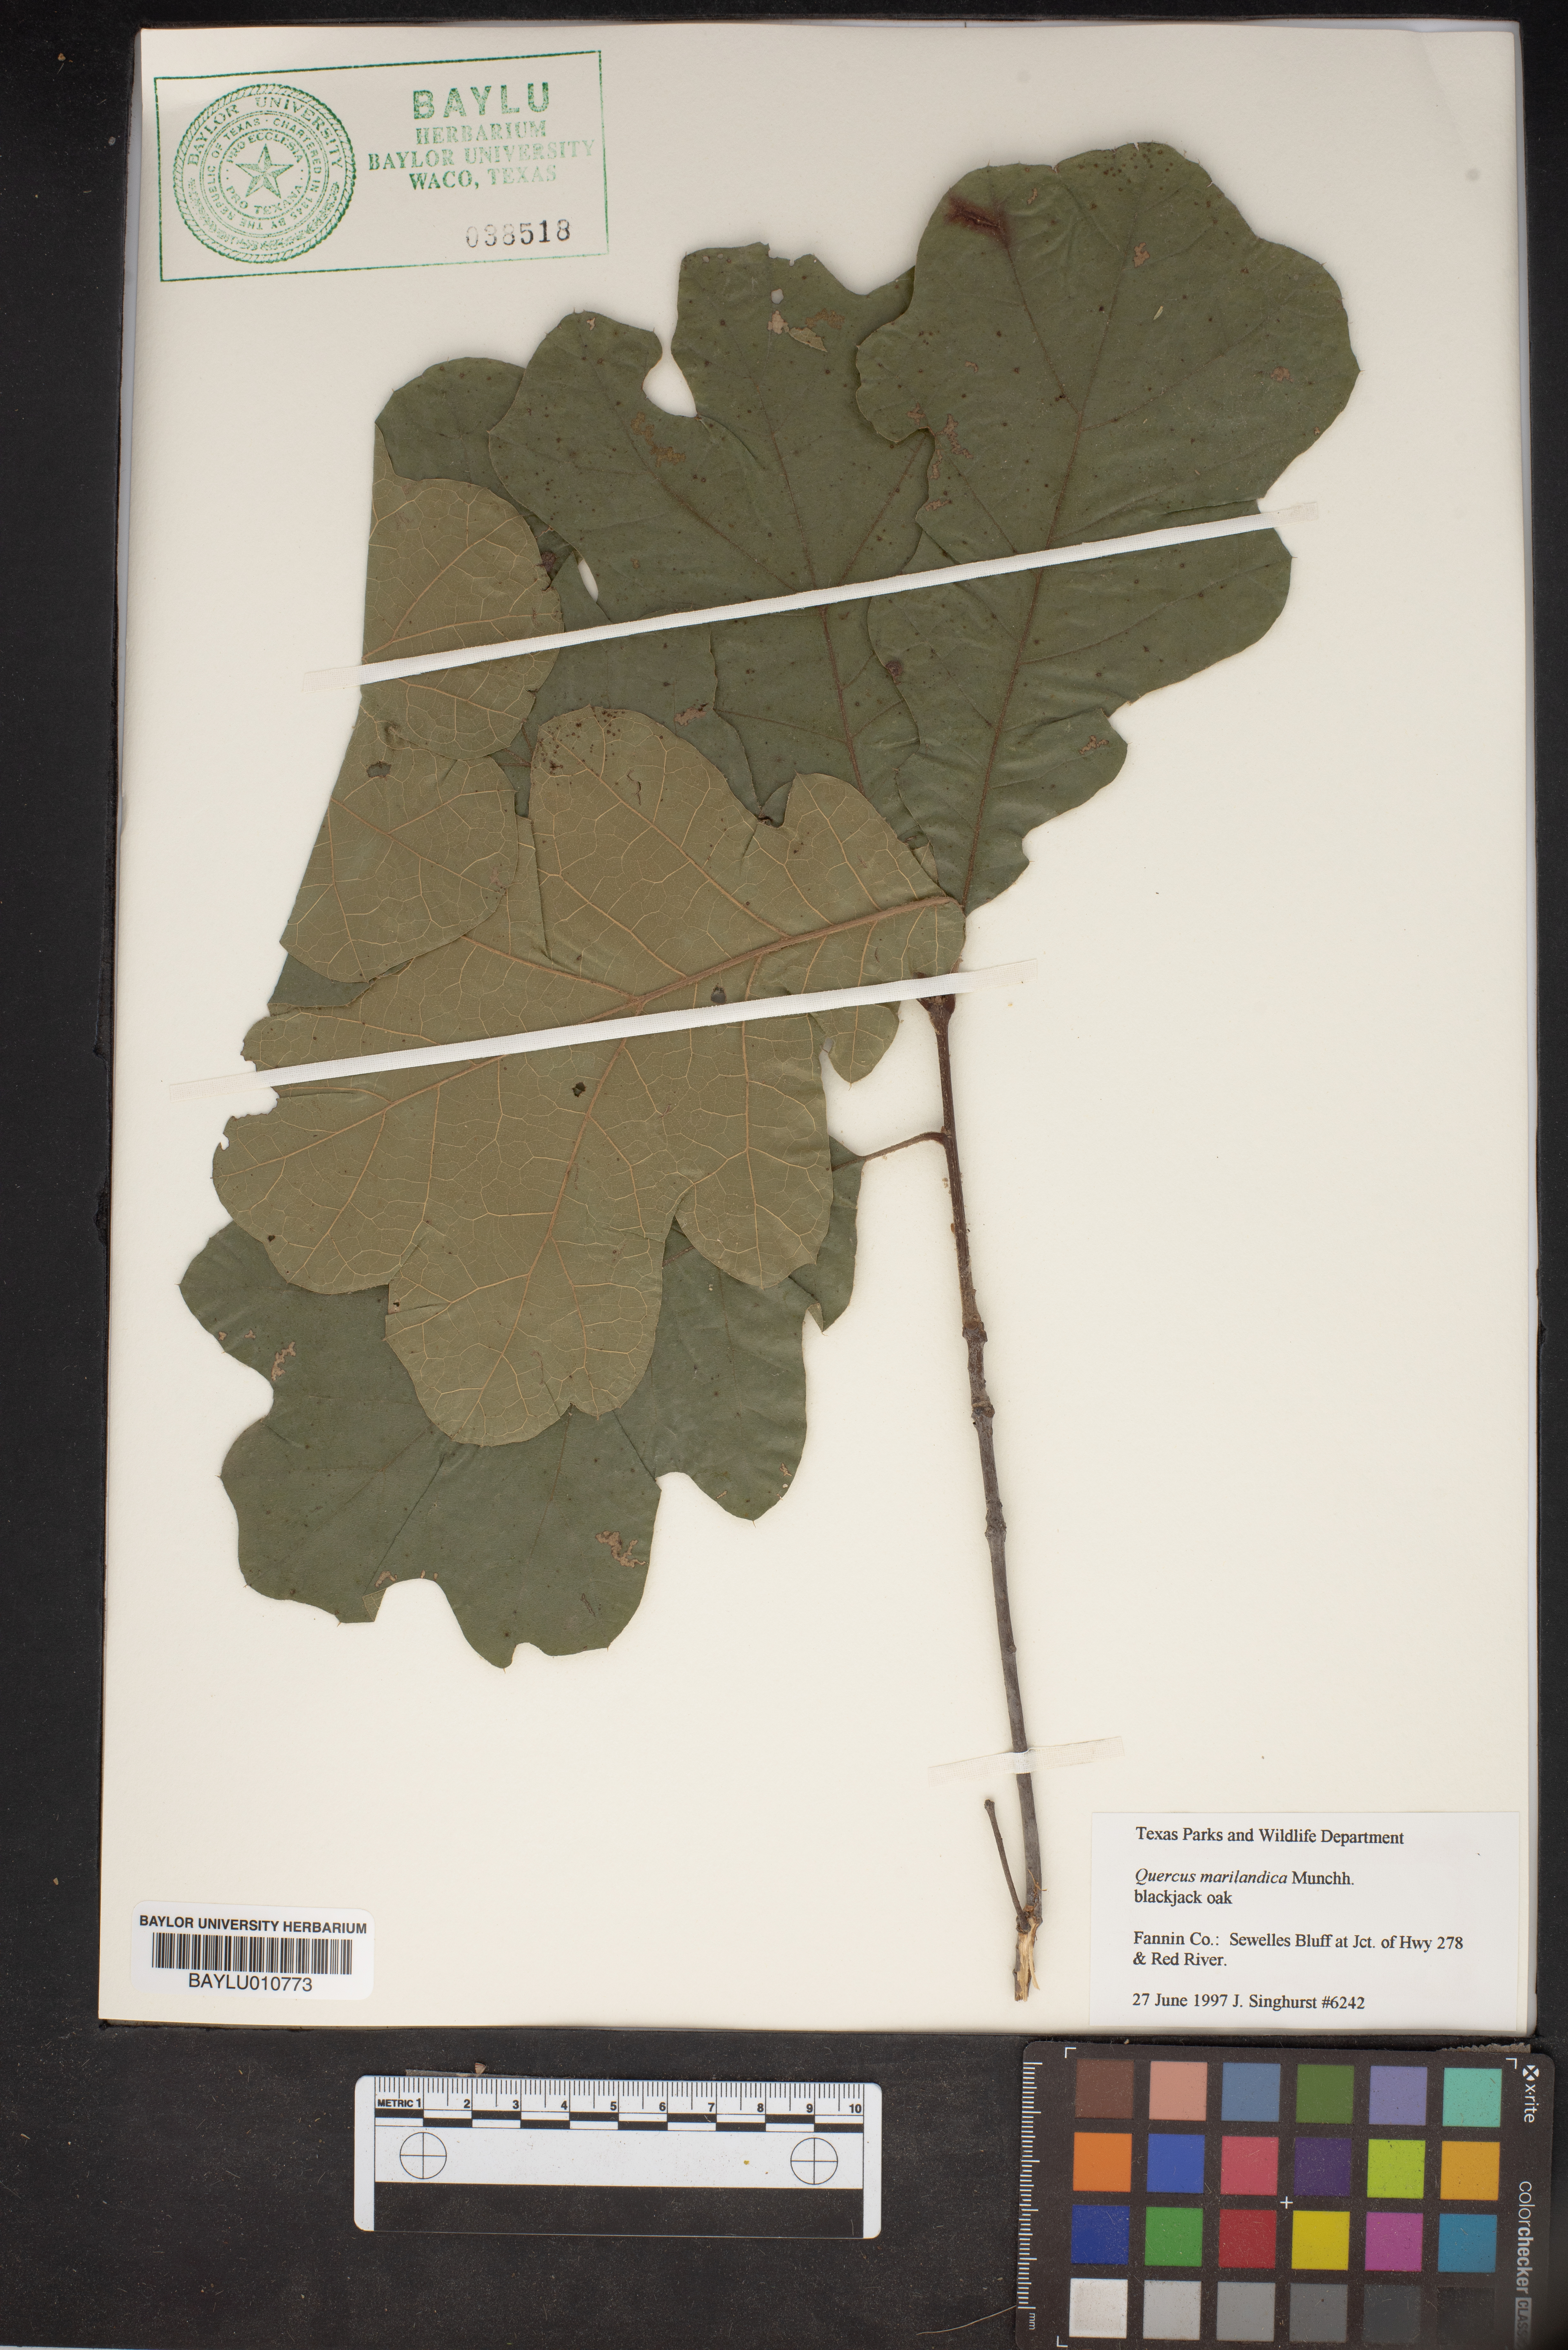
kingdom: Plantae
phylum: Tracheophyta
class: Magnoliopsida
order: Fagales
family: Fagaceae
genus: Quercus
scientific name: Quercus marilandica
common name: Blackjack oak
